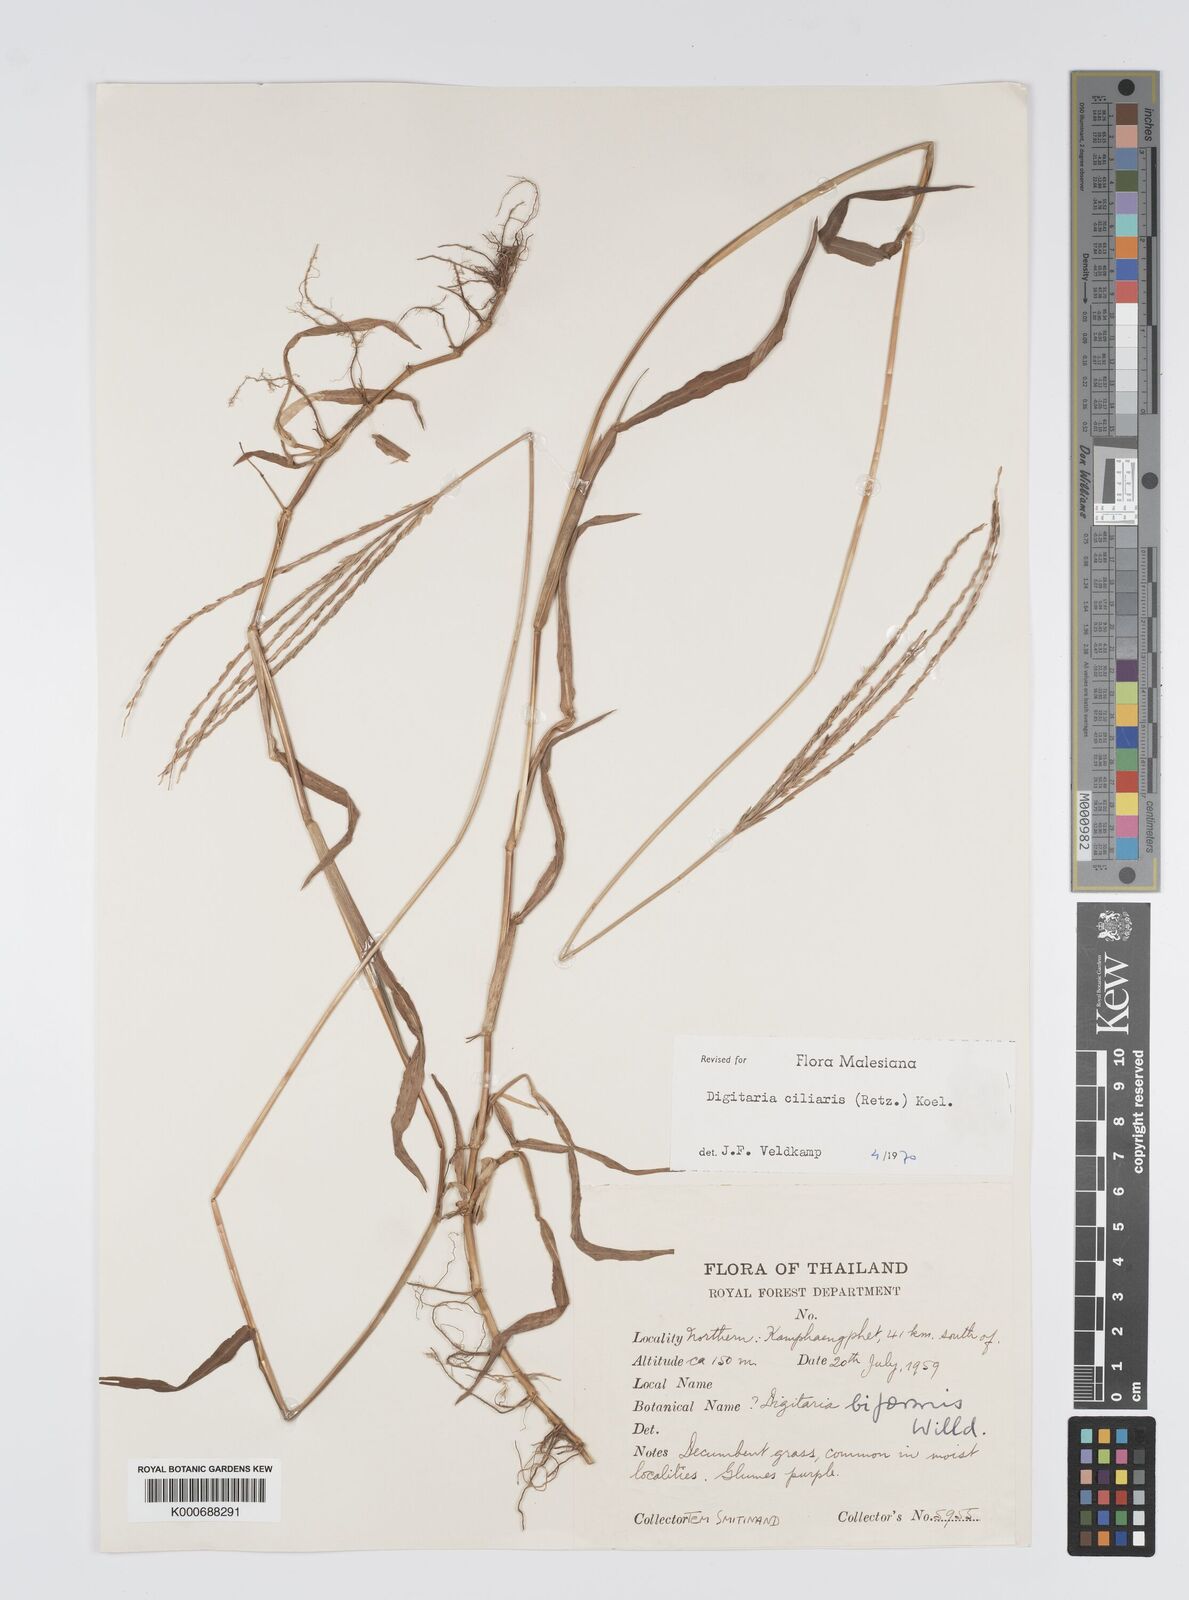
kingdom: Plantae
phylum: Tracheophyta
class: Liliopsida
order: Poales
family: Poaceae
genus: Digitaria
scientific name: Digitaria ciliaris
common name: Tropical finger-grass
